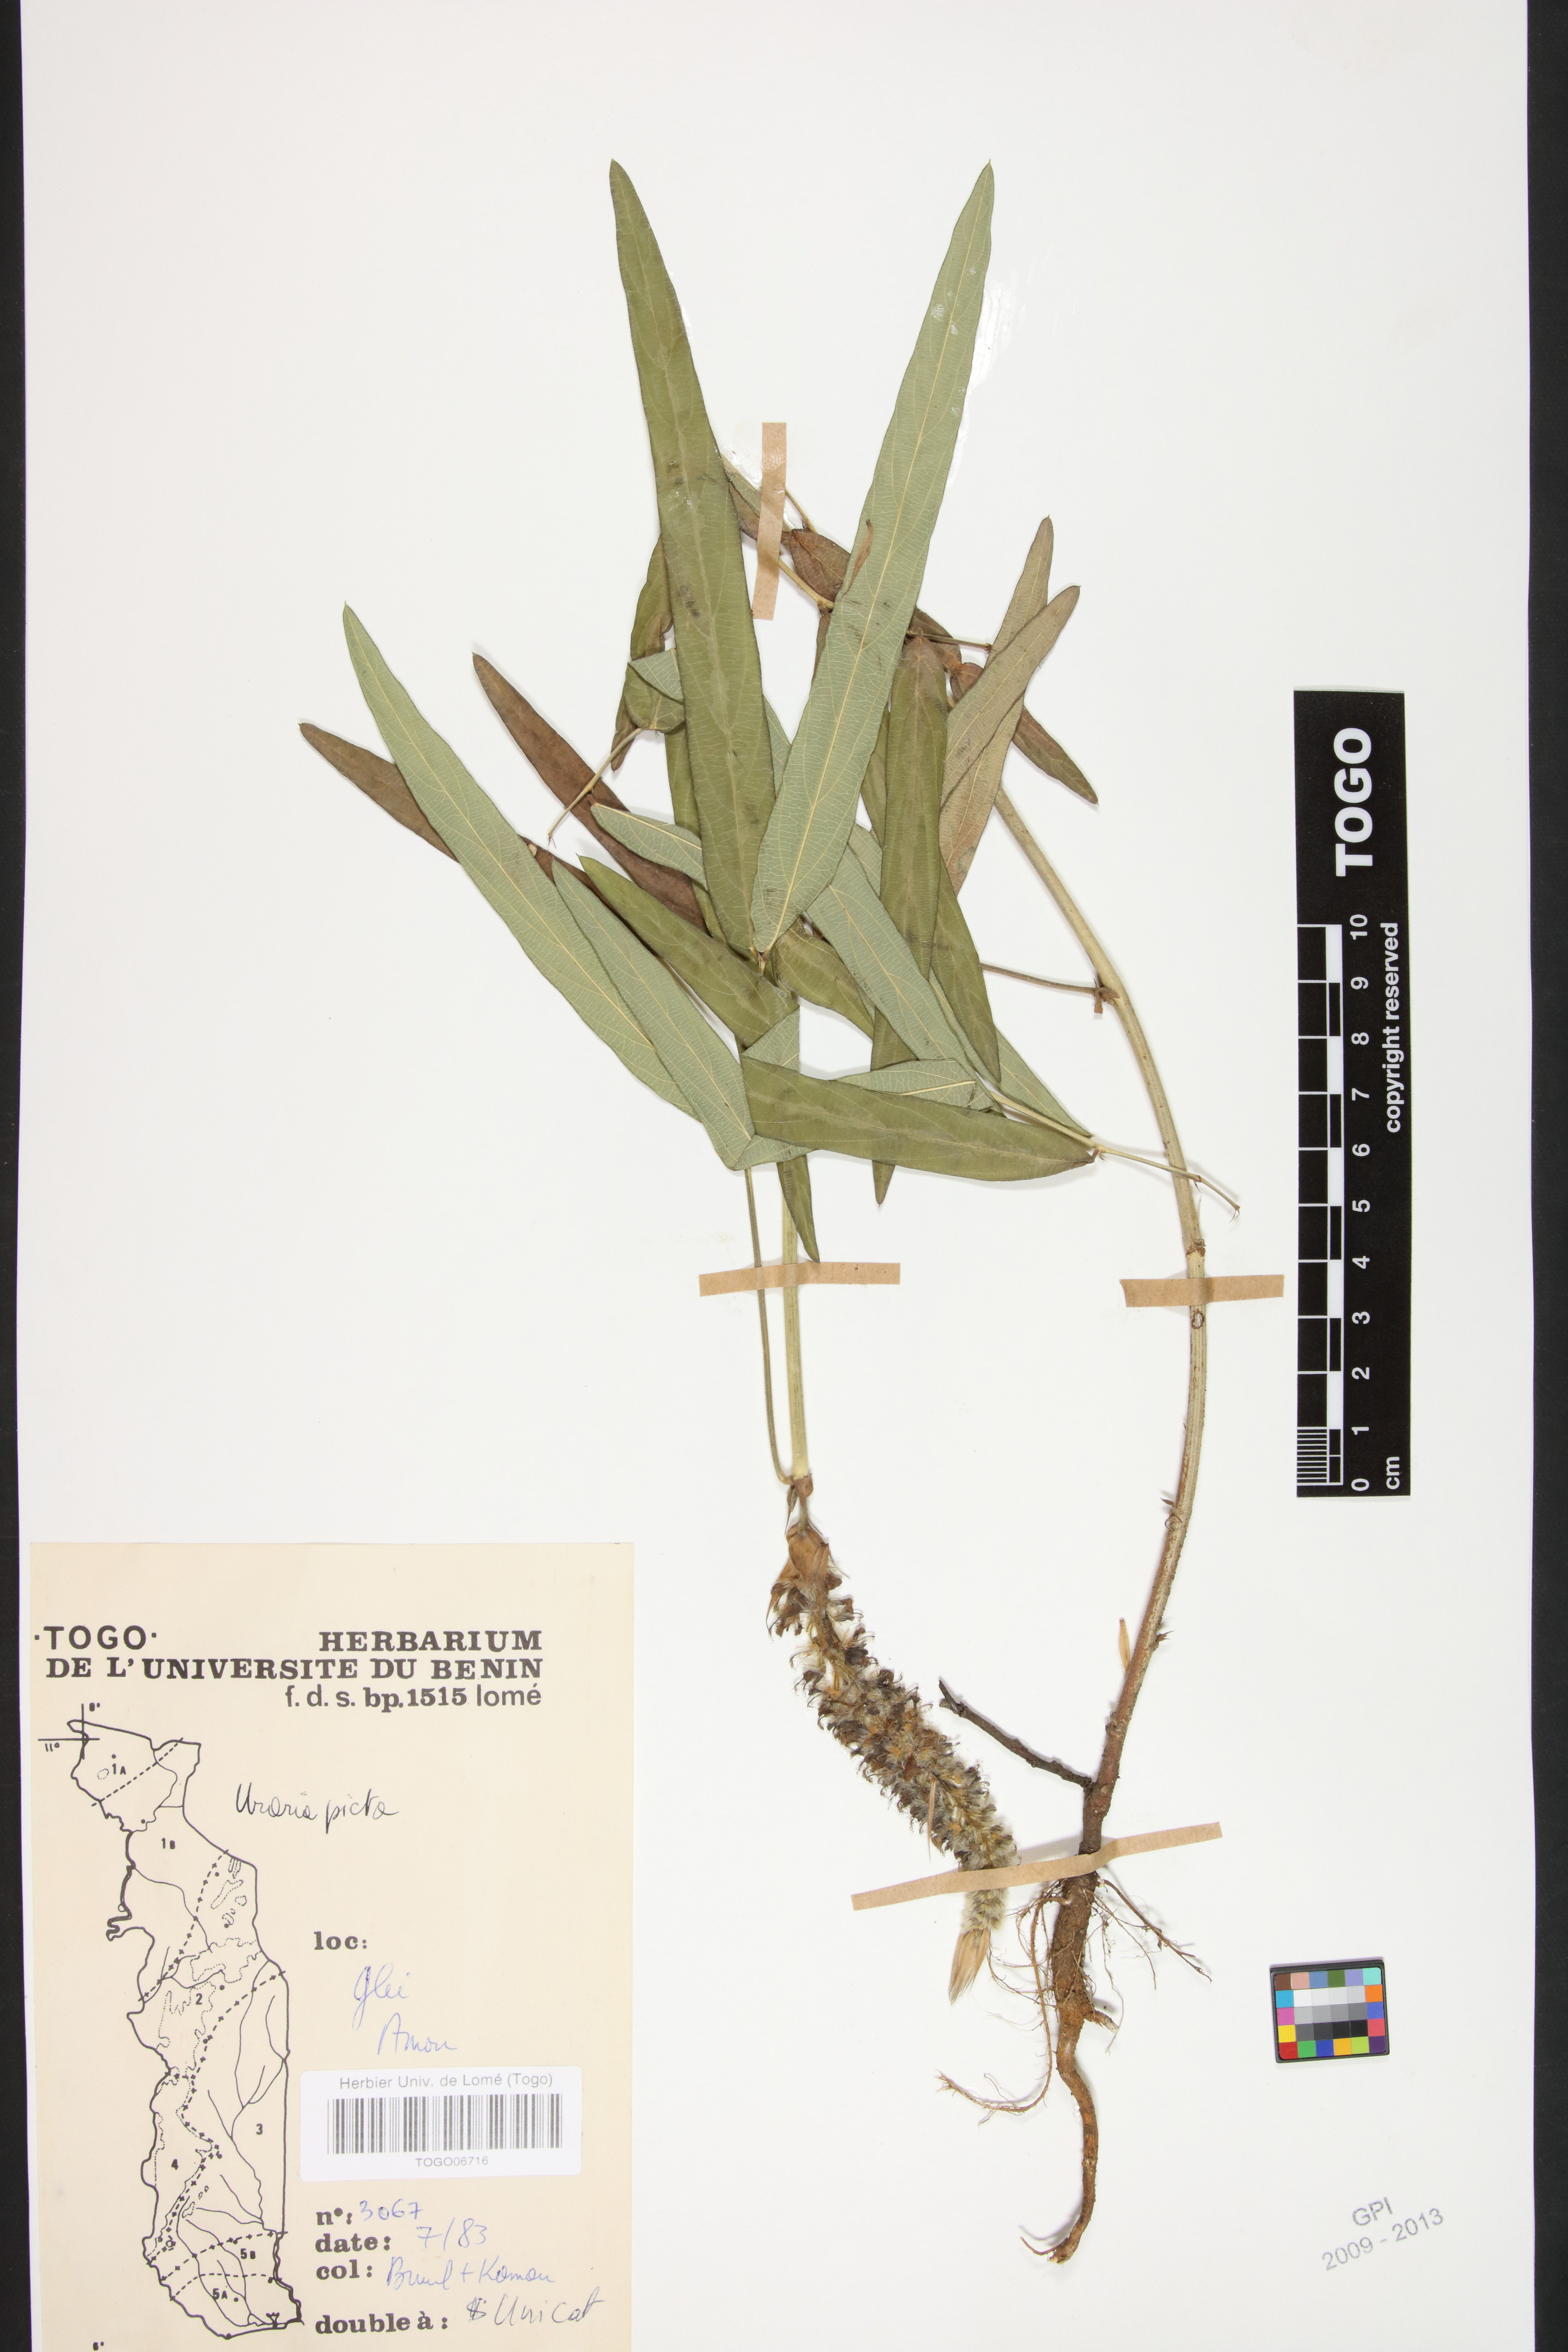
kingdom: Plantae
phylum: Tracheophyta
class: Magnoliopsida
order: Fabales
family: Fabaceae
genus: Uraria
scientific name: Uraria picta
